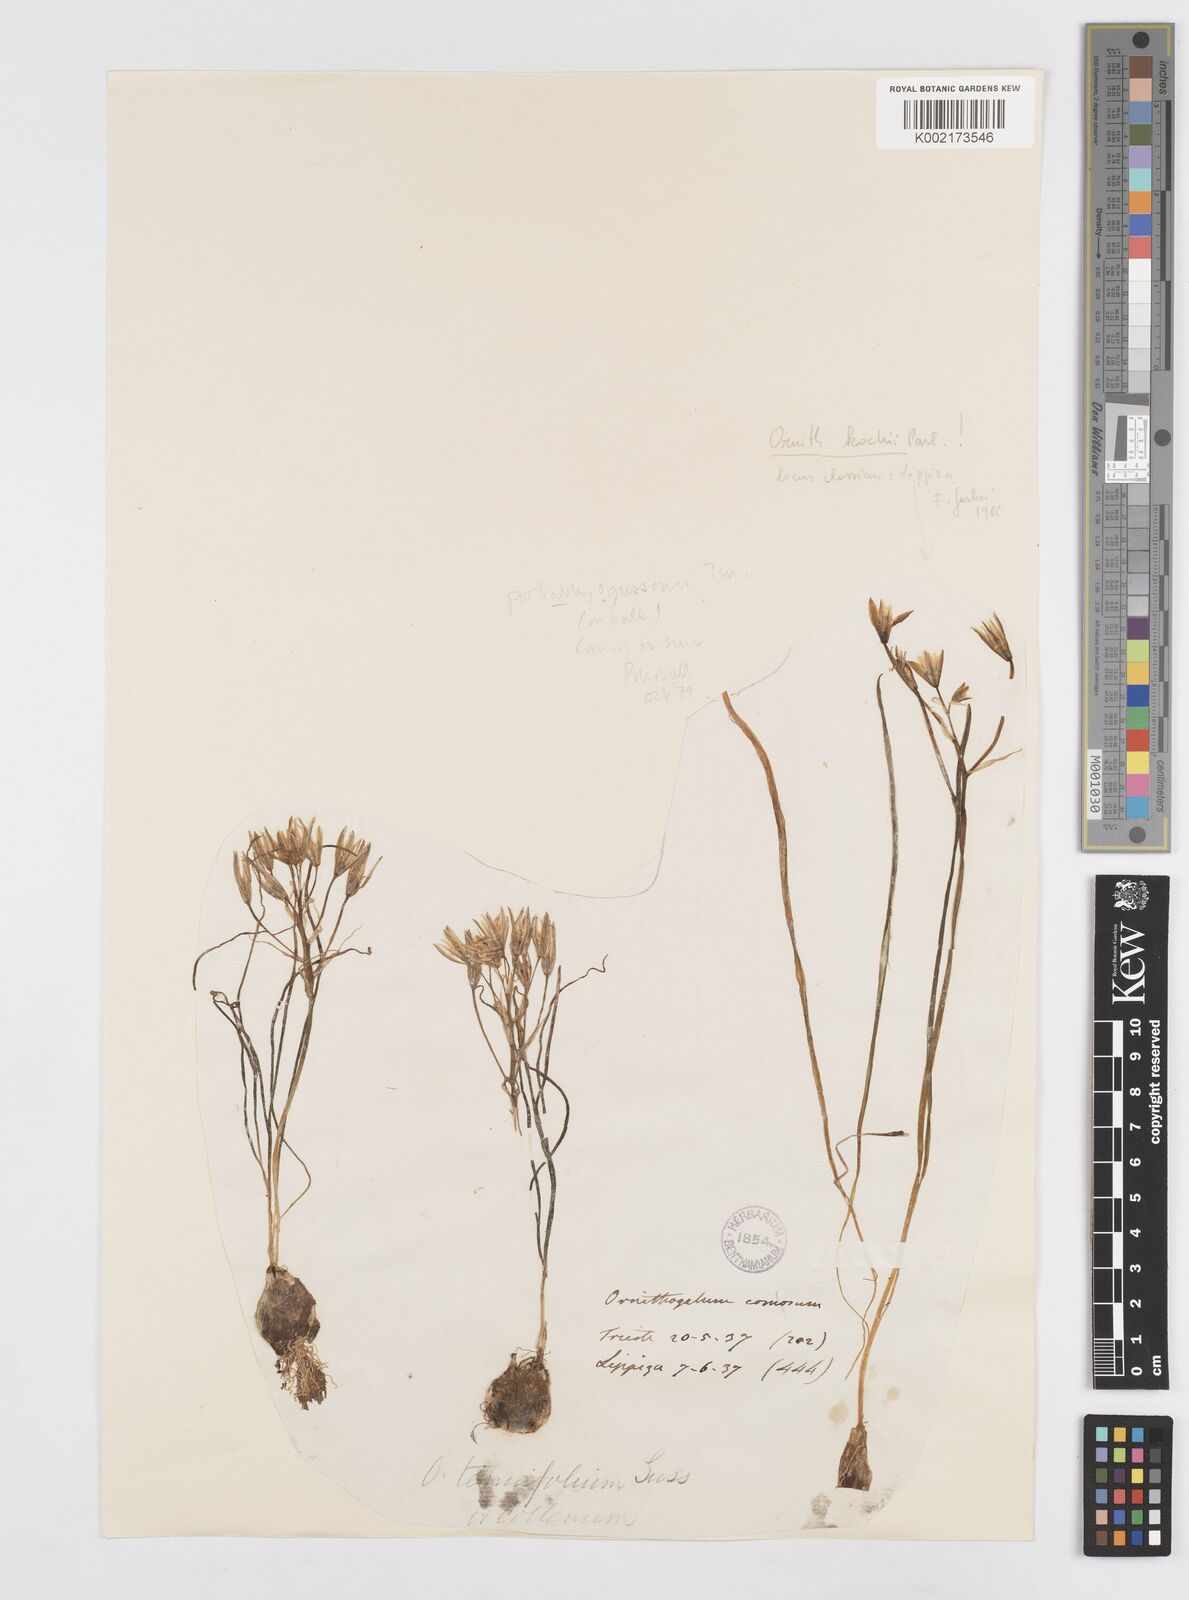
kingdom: Plantae
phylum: Tracheophyta
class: Liliopsida
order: Asparagales
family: Asparagaceae
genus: Ornithogalum
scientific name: Ornithogalum gussonei
